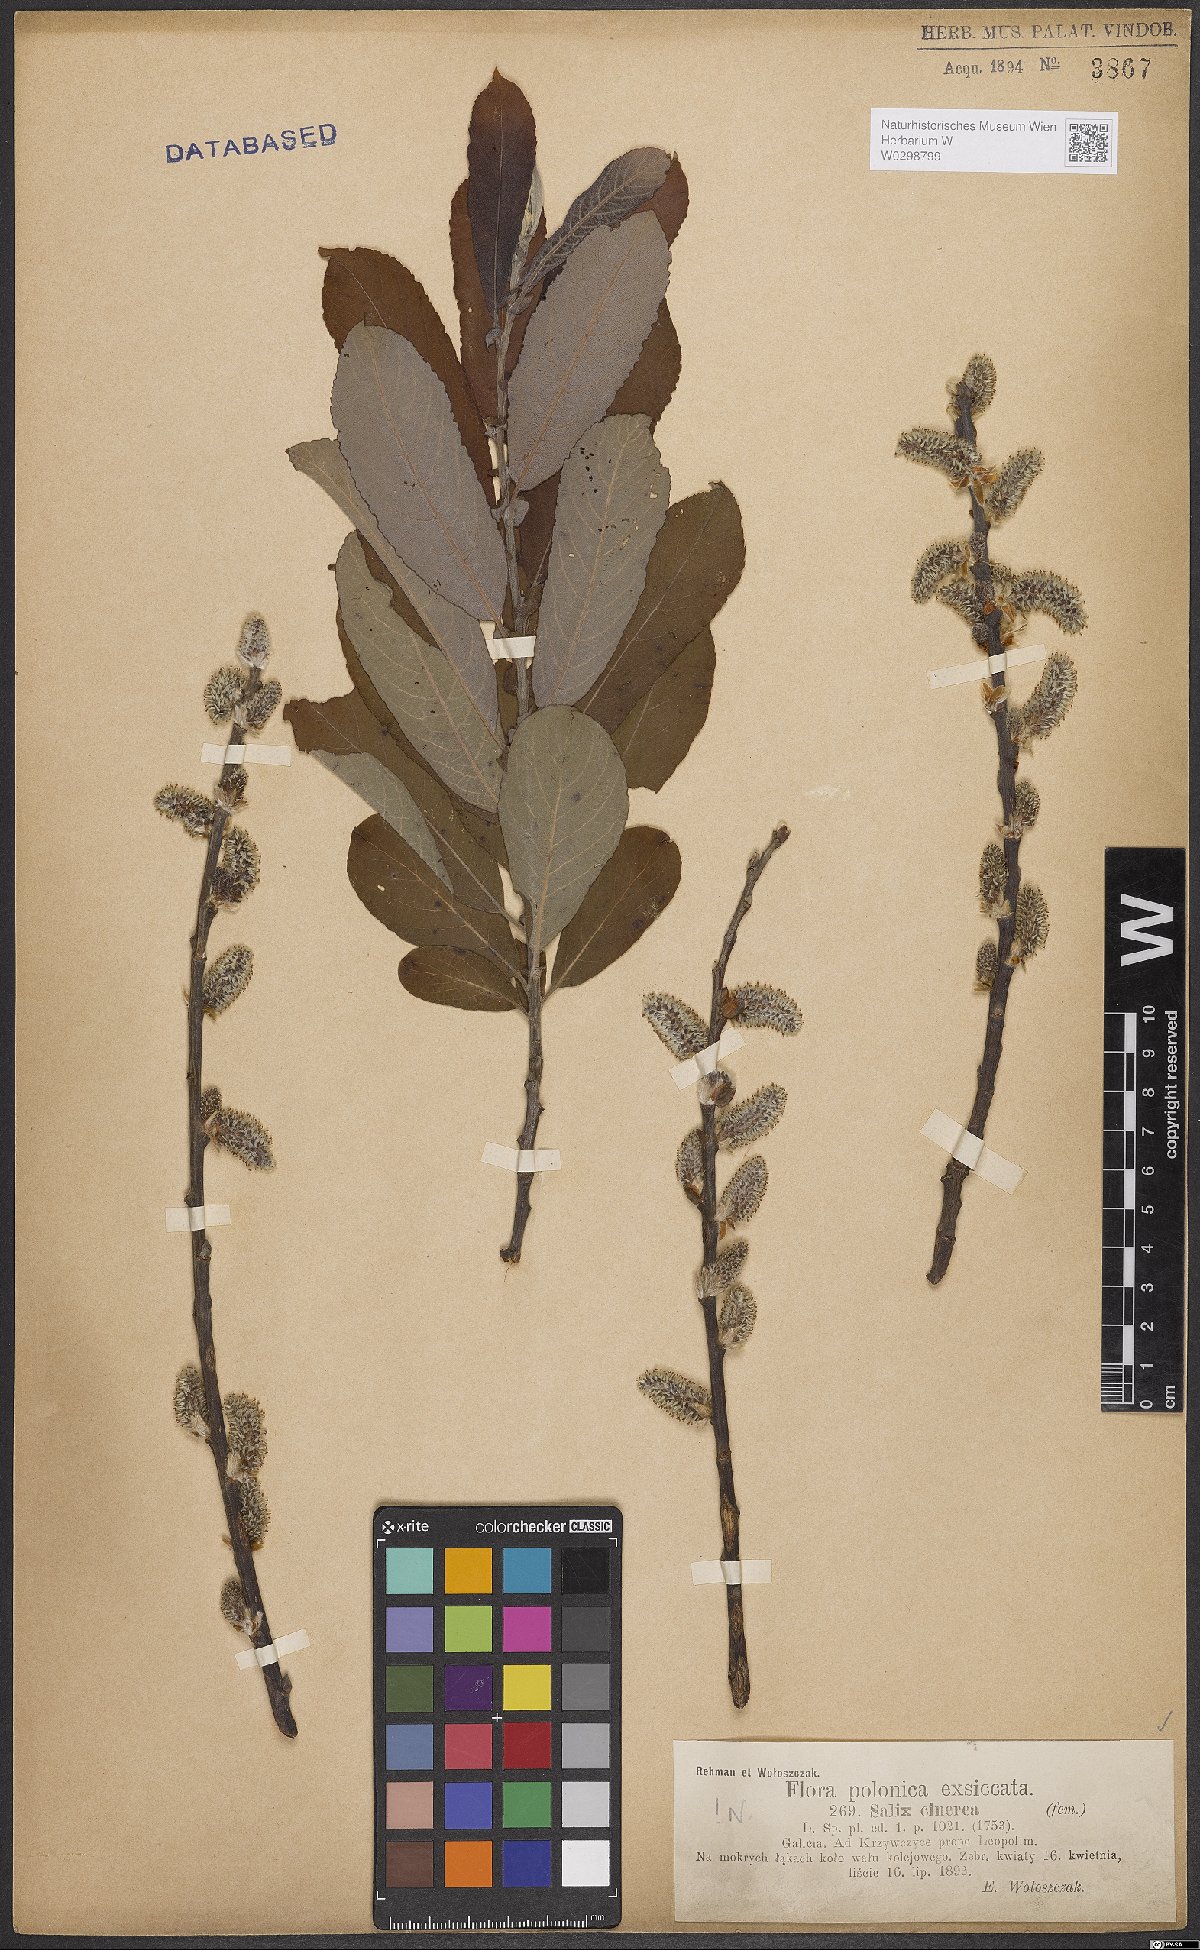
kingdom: Plantae
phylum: Tracheophyta
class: Magnoliopsida
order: Malpighiales
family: Salicaceae
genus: Salix
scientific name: Salix cinerea
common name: Common sallow
